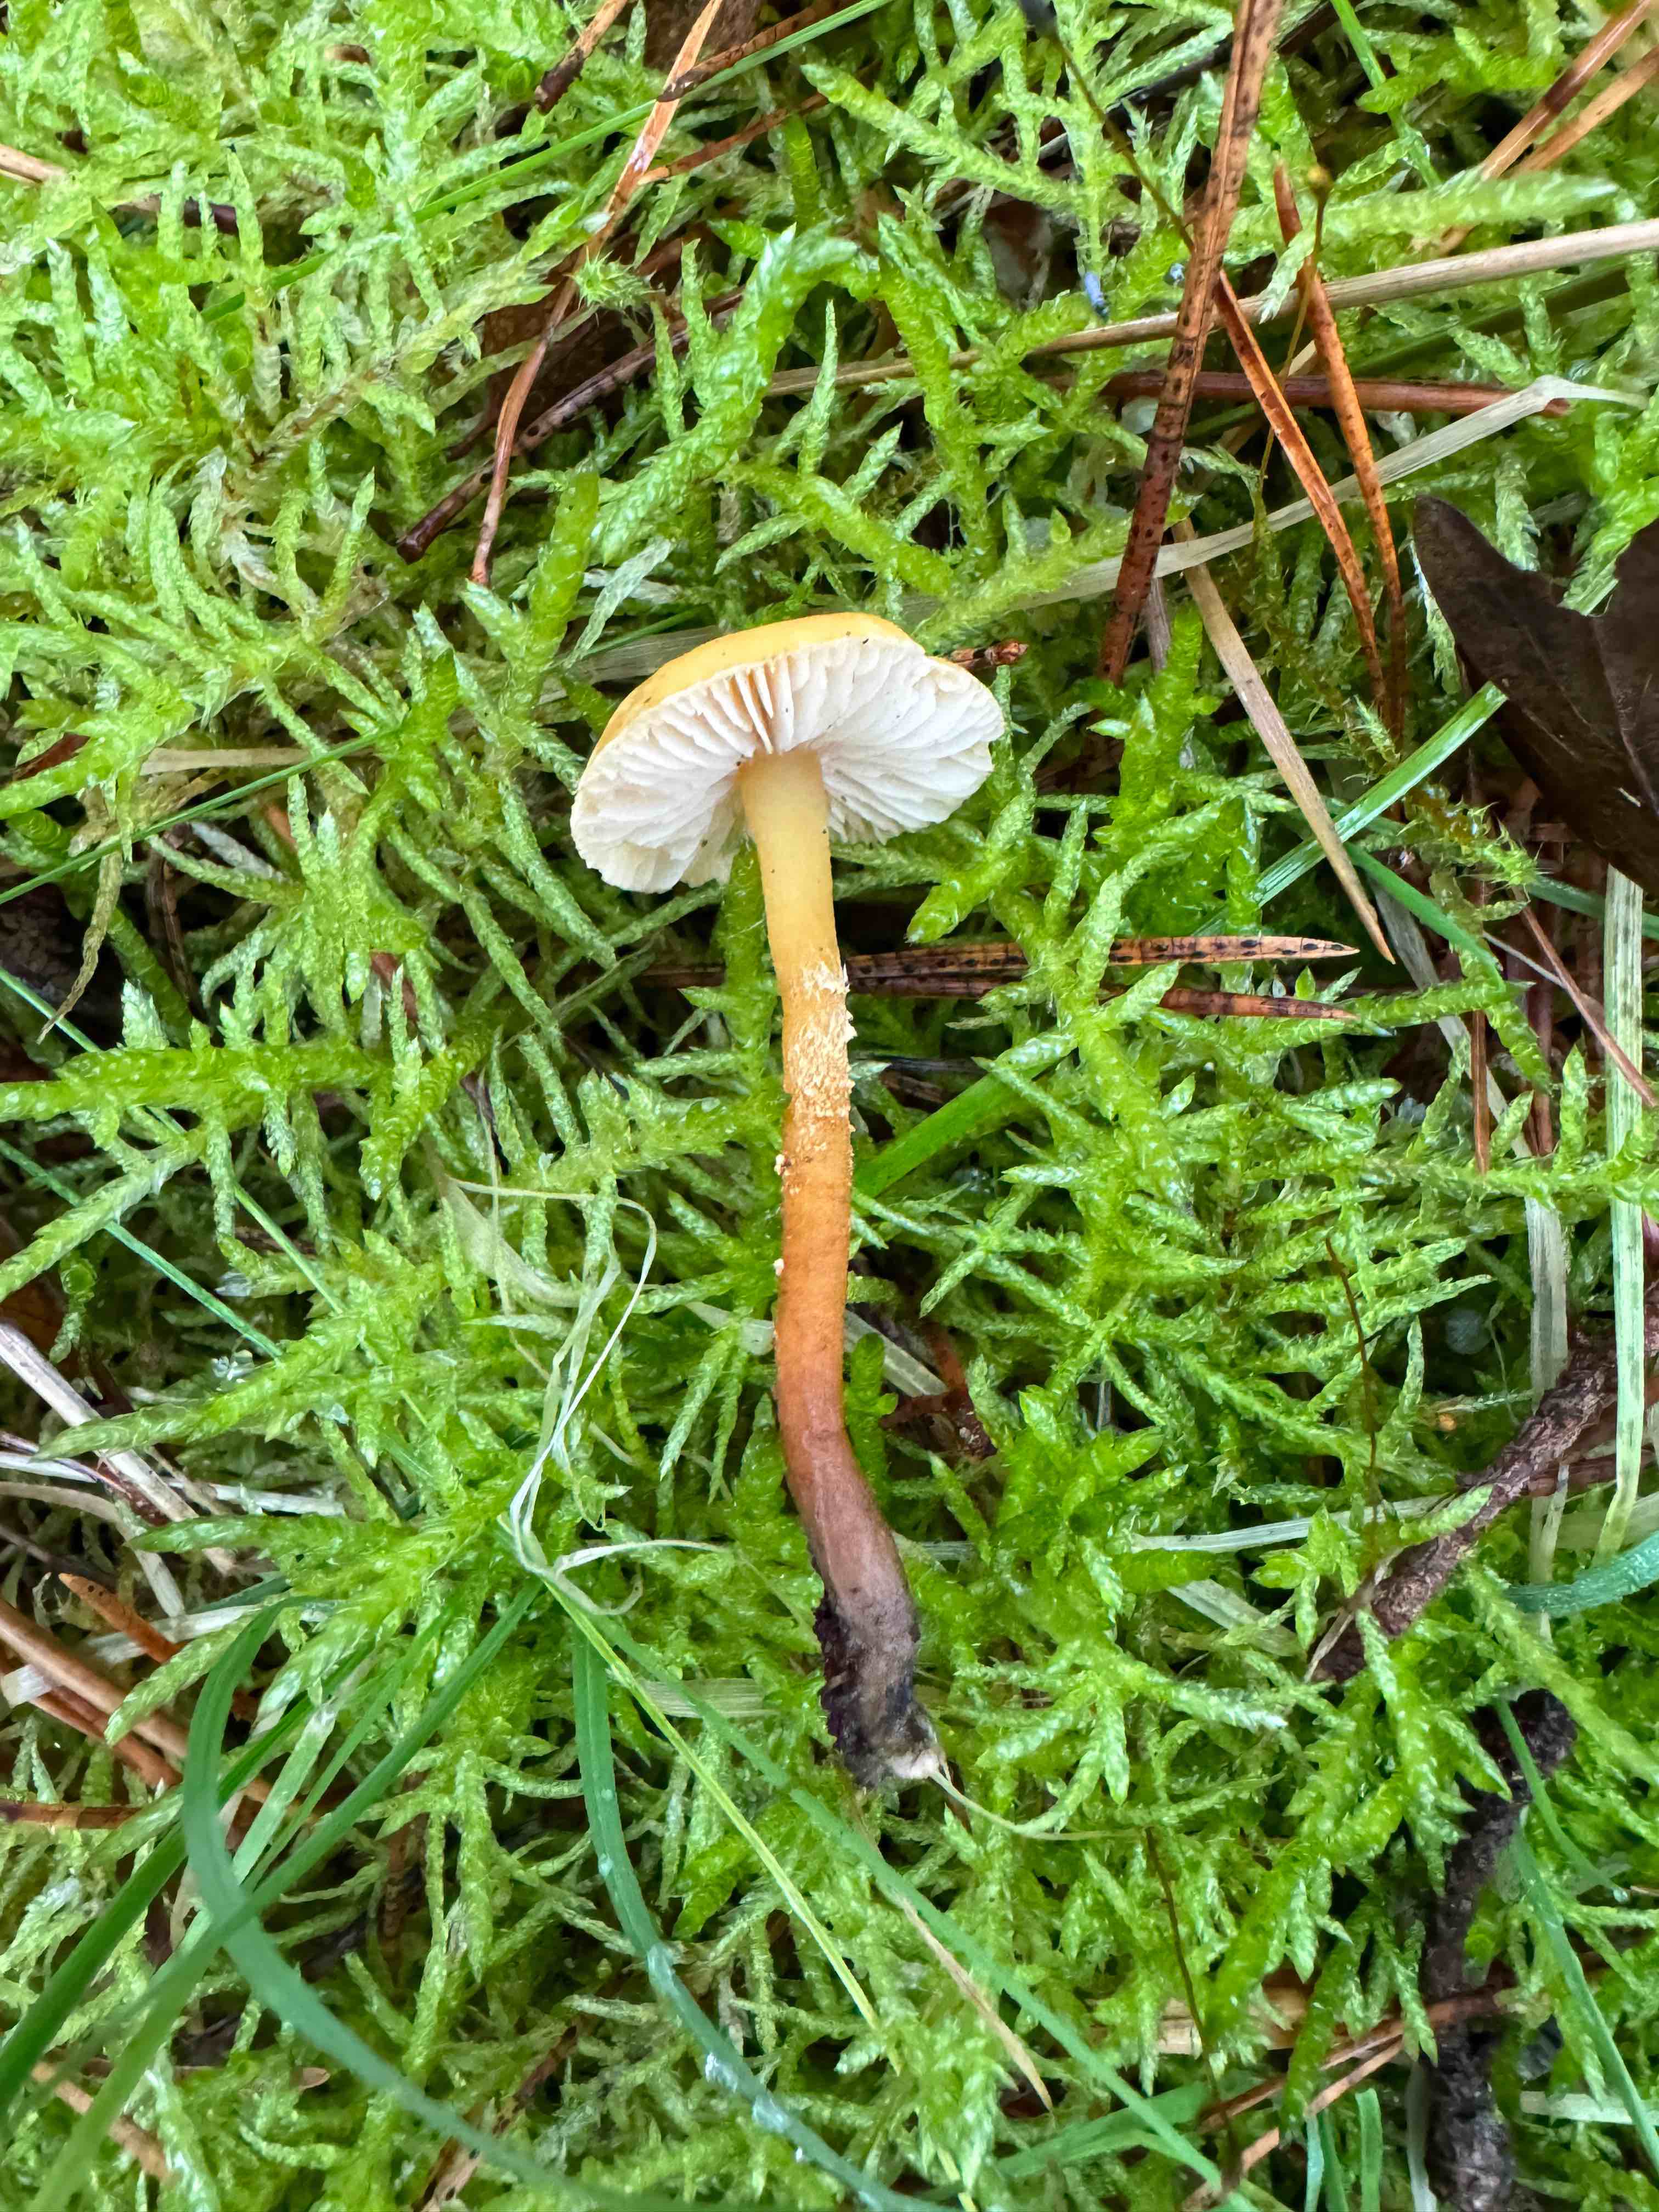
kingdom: Fungi
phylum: Basidiomycota
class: Agaricomycetes
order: Agaricales
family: Tricholomataceae
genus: Cystoderma
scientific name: Cystoderma amianthinum
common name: okkergul grynhat
